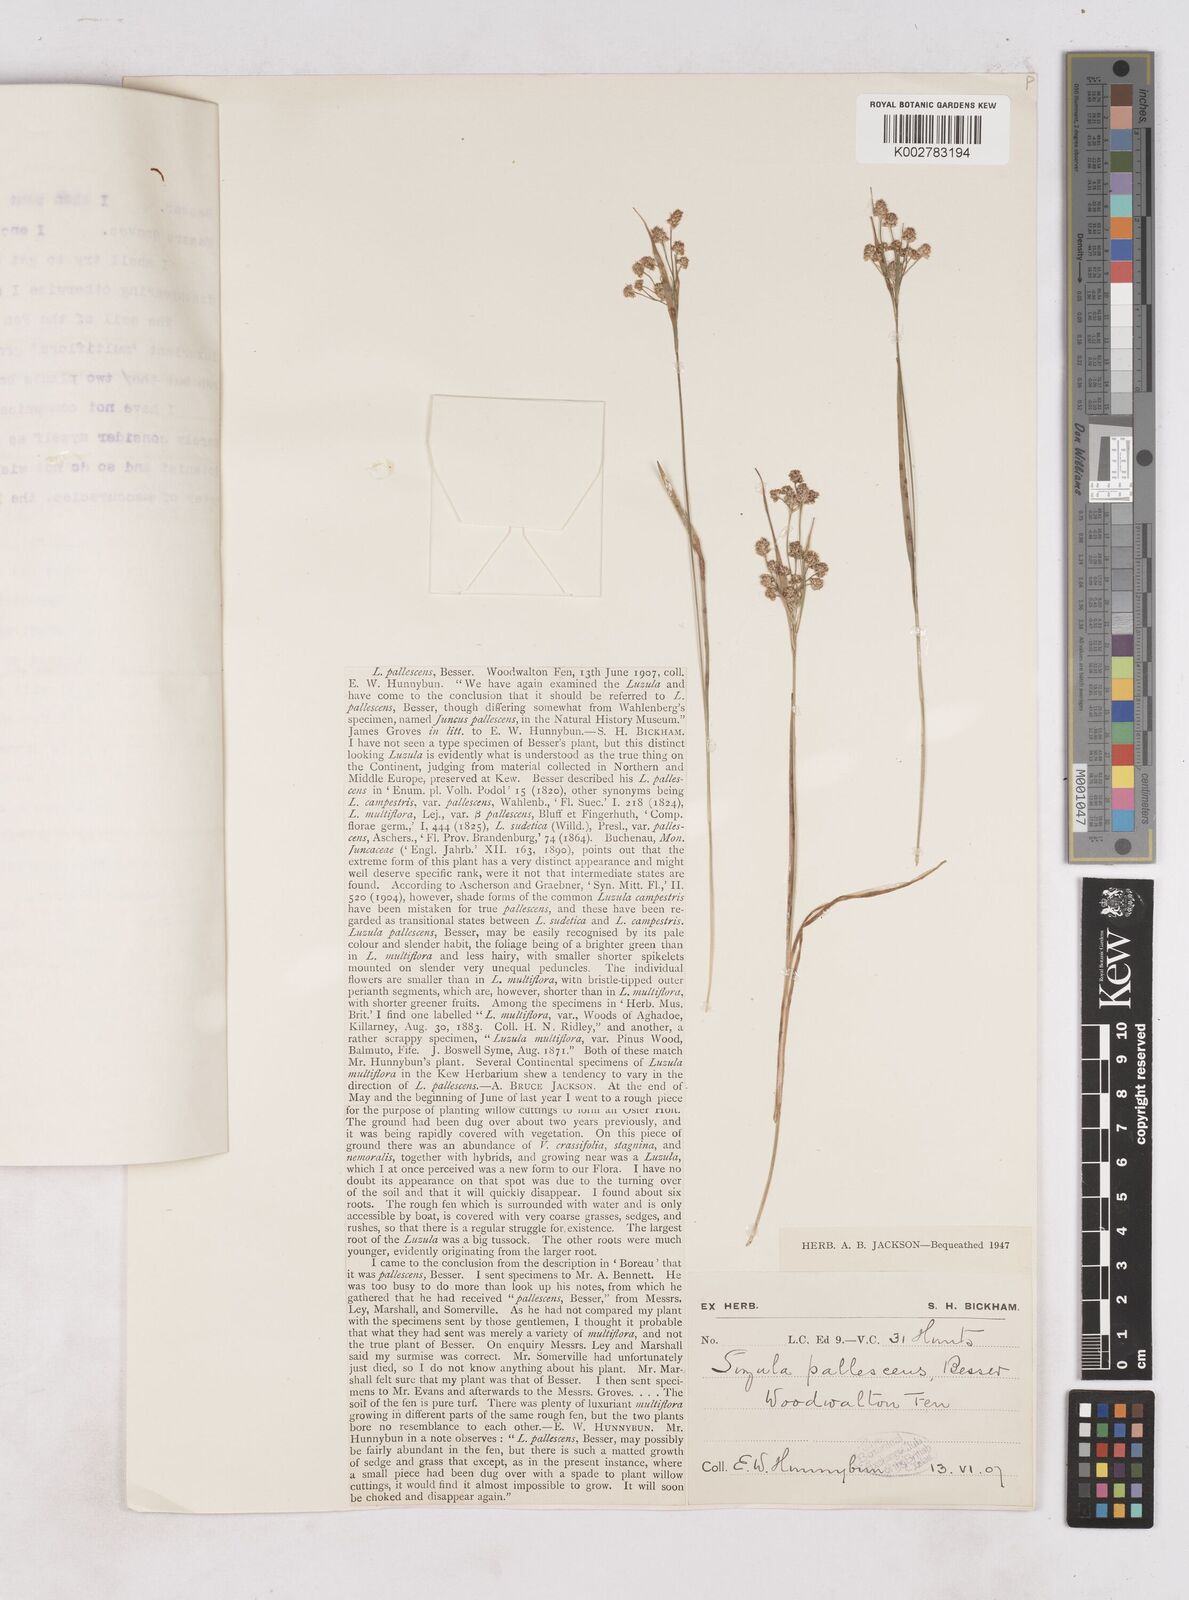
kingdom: Plantae
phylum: Tracheophyta
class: Liliopsida
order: Poales
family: Juncaceae
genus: Luzula
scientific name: Luzula pallescens
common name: Fen wood-rush
